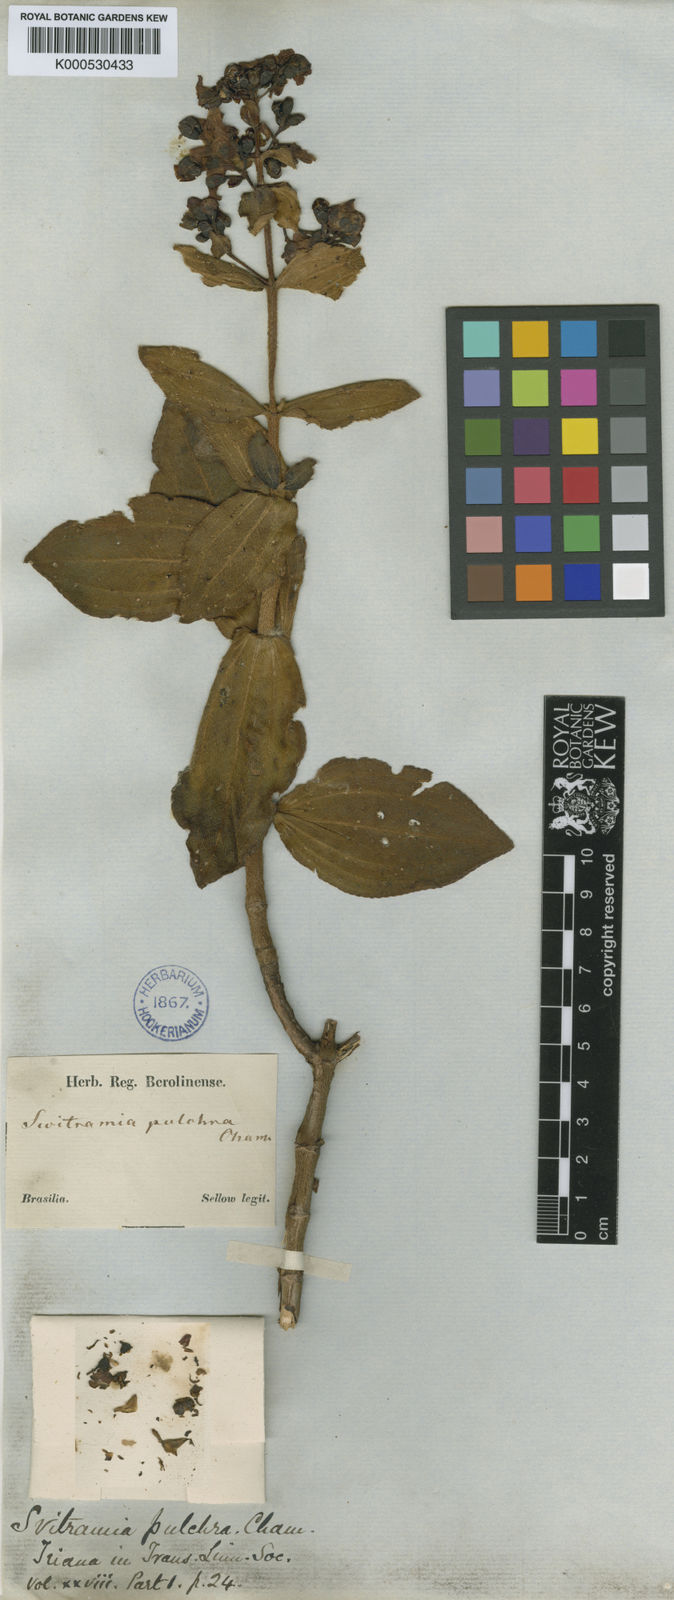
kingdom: Plantae
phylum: Tracheophyta
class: Magnoliopsida
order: Myrtales
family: Melastomataceae
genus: Pleroma
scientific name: Pleroma bandeirae
